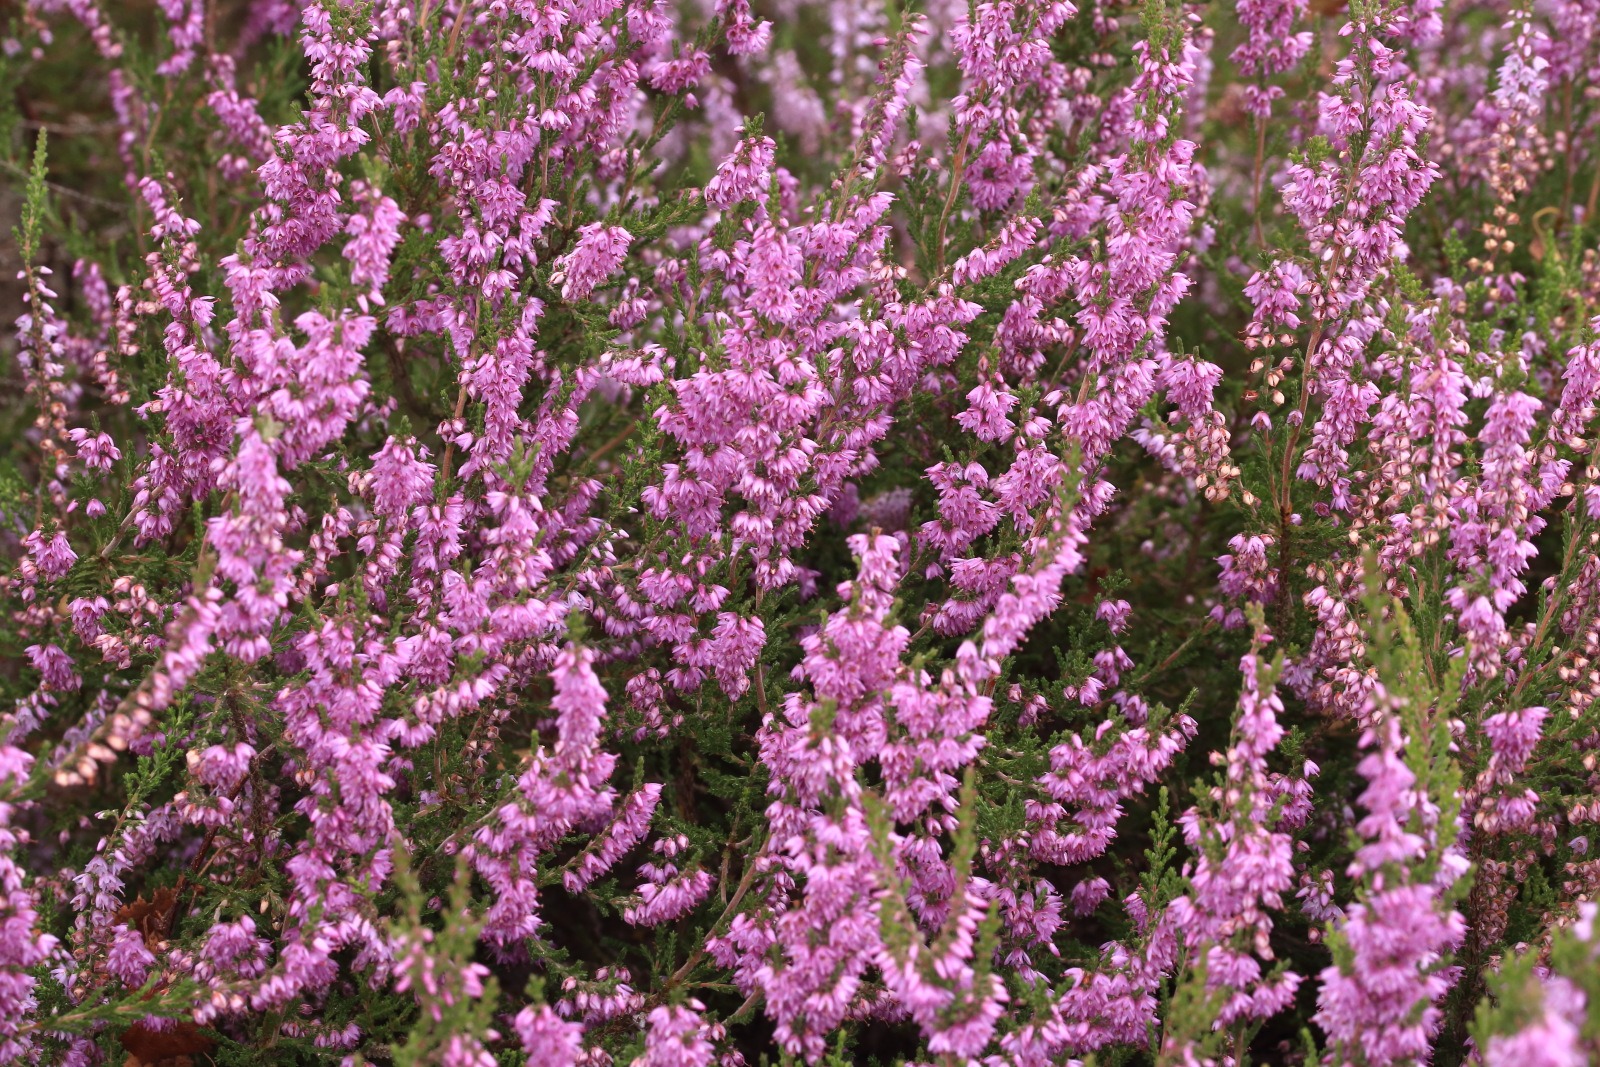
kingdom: Plantae
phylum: Tracheophyta
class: Magnoliopsida
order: Ericales
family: Ericaceae
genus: Calluna
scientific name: Calluna vulgaris
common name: Hedelyng
